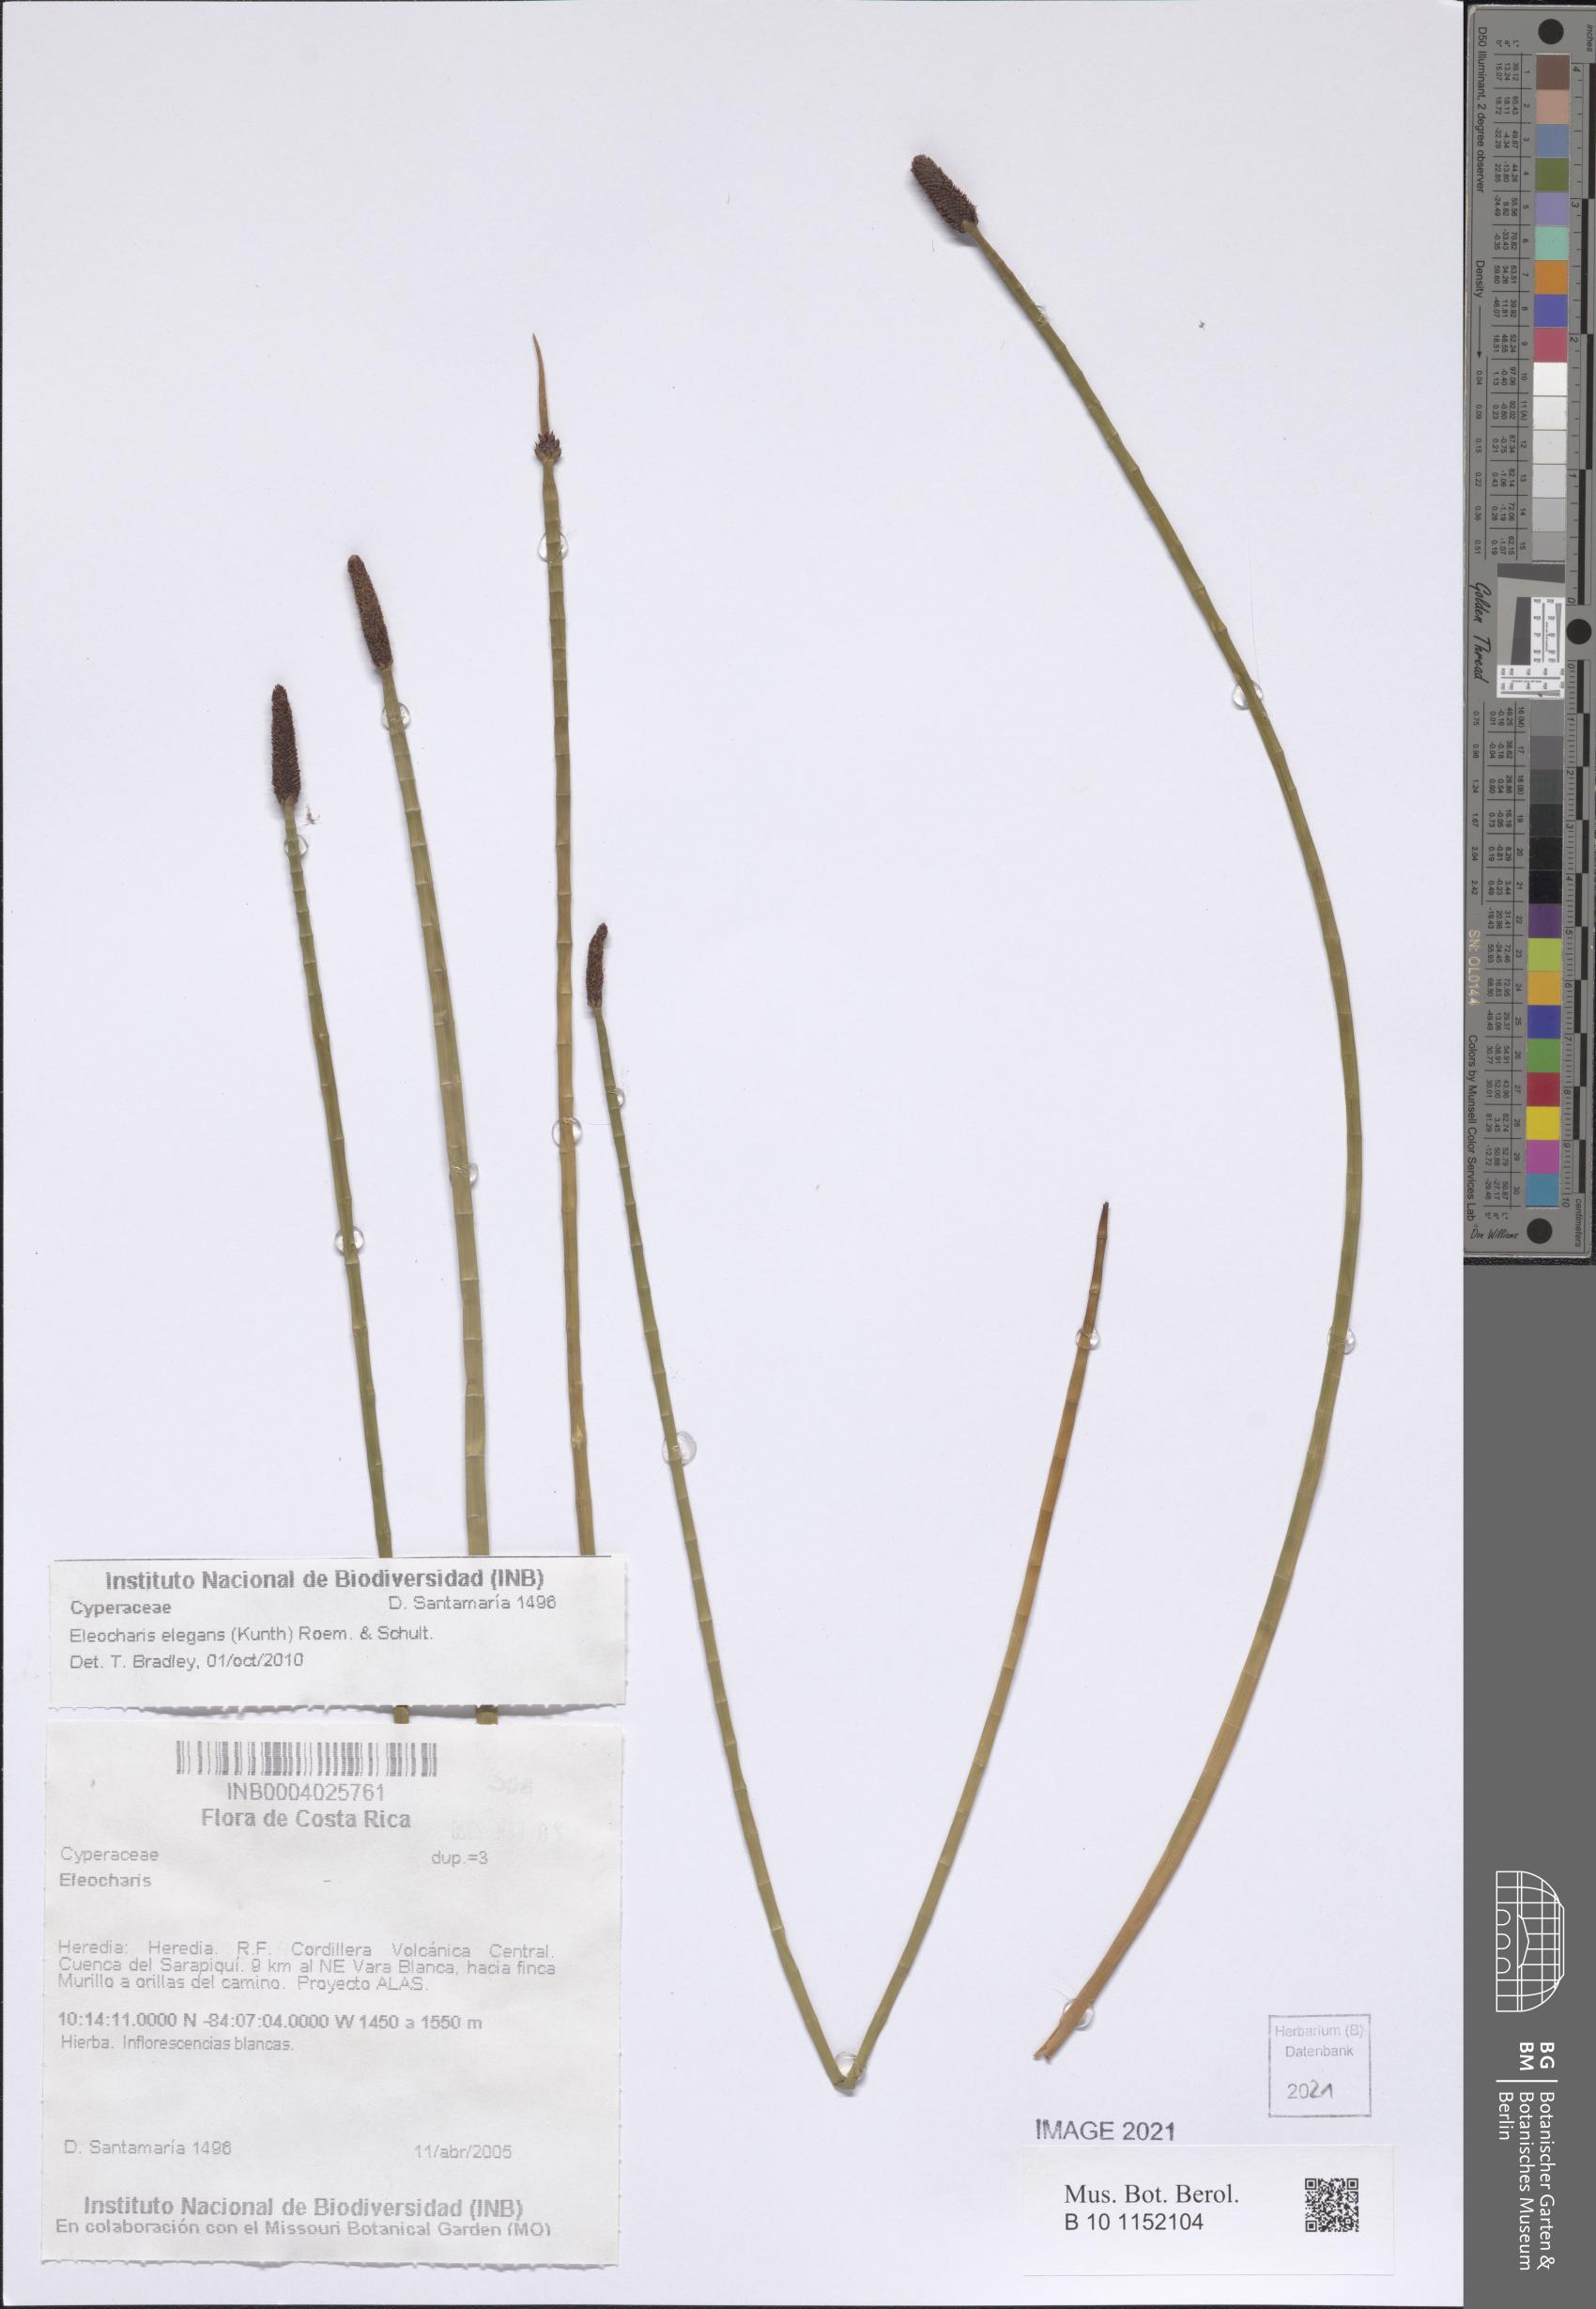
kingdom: Plantae
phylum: Tracheophyta
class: Liliopsida
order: Poales
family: Cyperaceae
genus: Eleocharis
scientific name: Eleocharis elegans
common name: Elegant spike-rush
